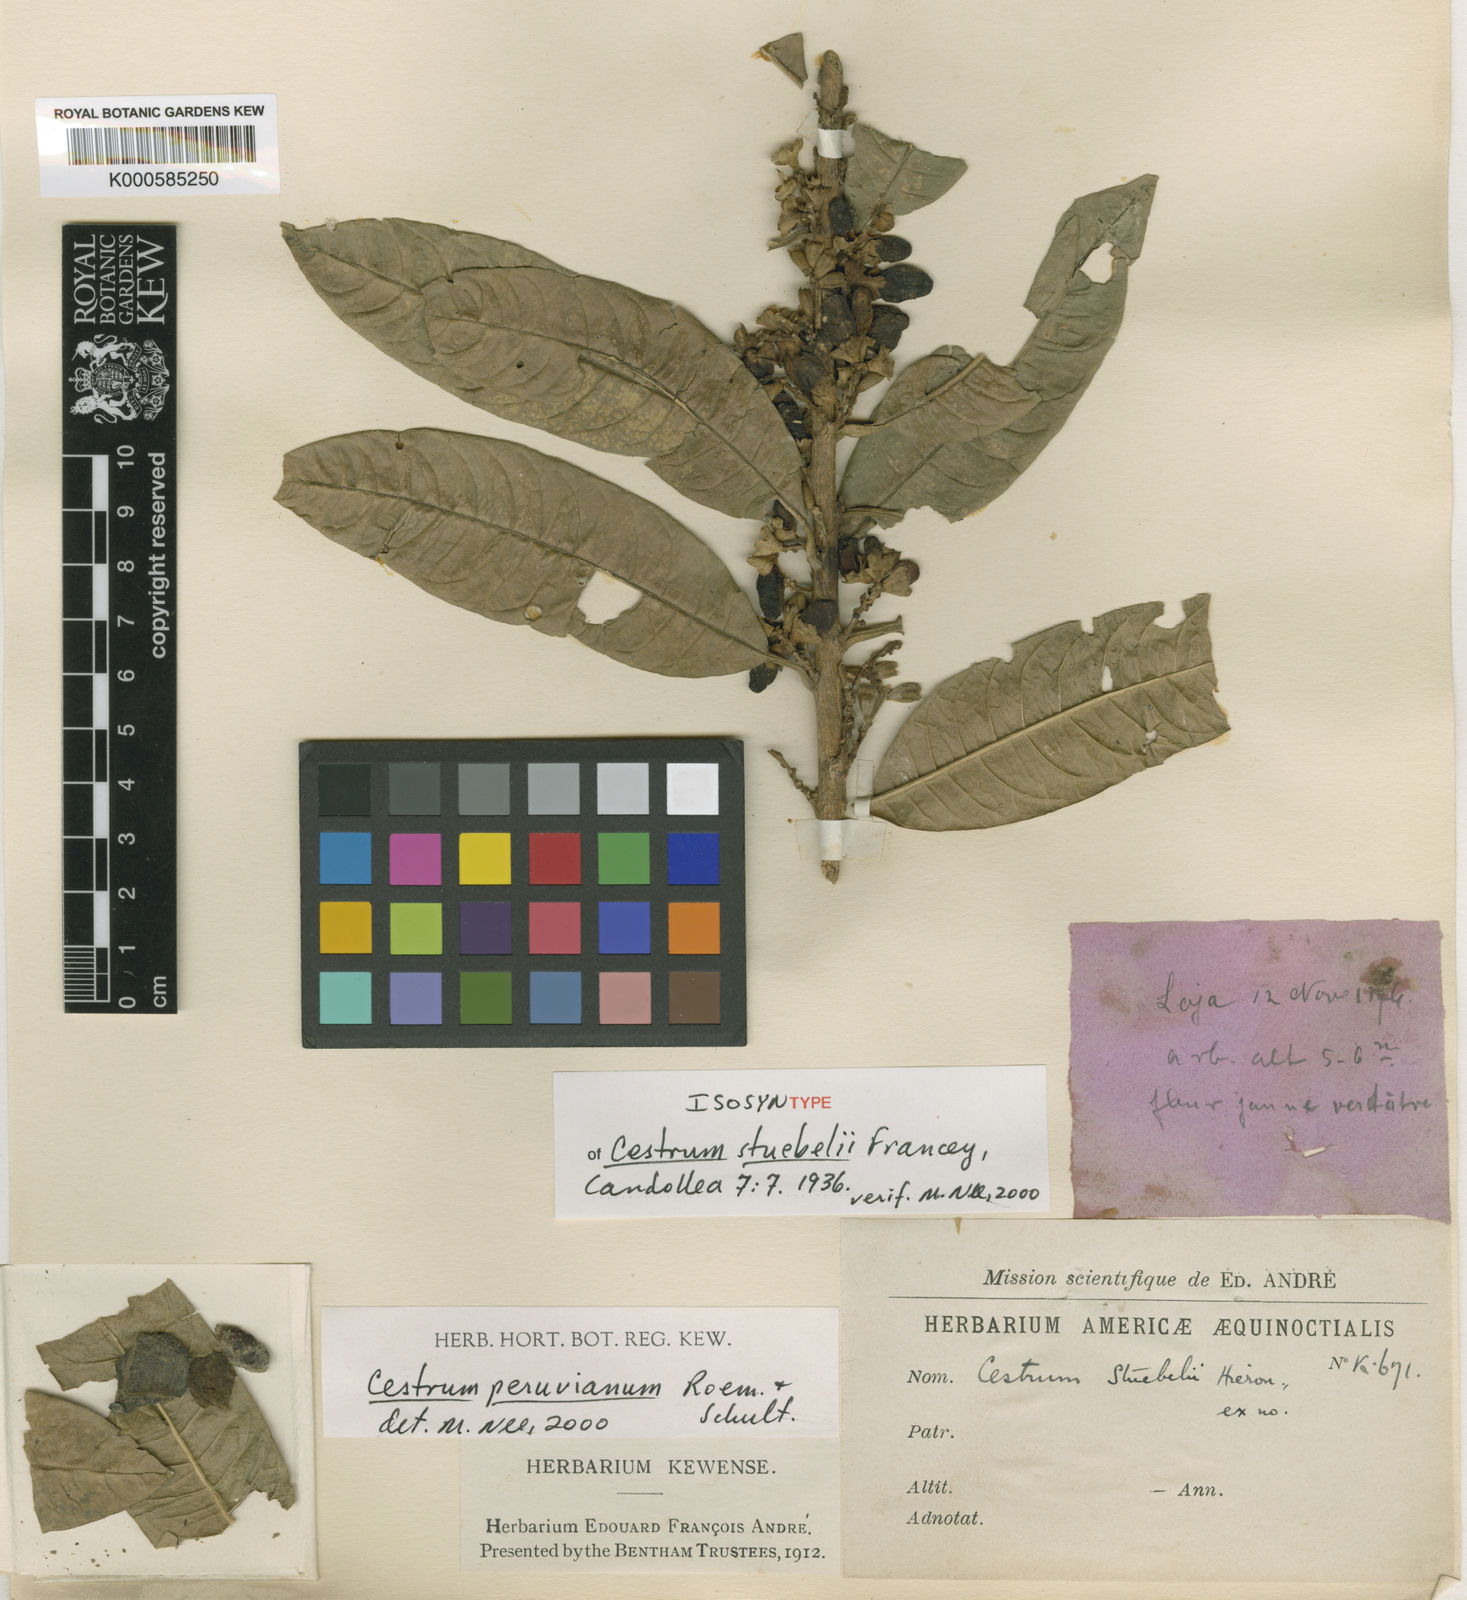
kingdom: Plantae
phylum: Tracheophyta
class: Magnoliopsida
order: Solanales
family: Solanaceae
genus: Cestrum
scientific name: Cestrum stuebelii
